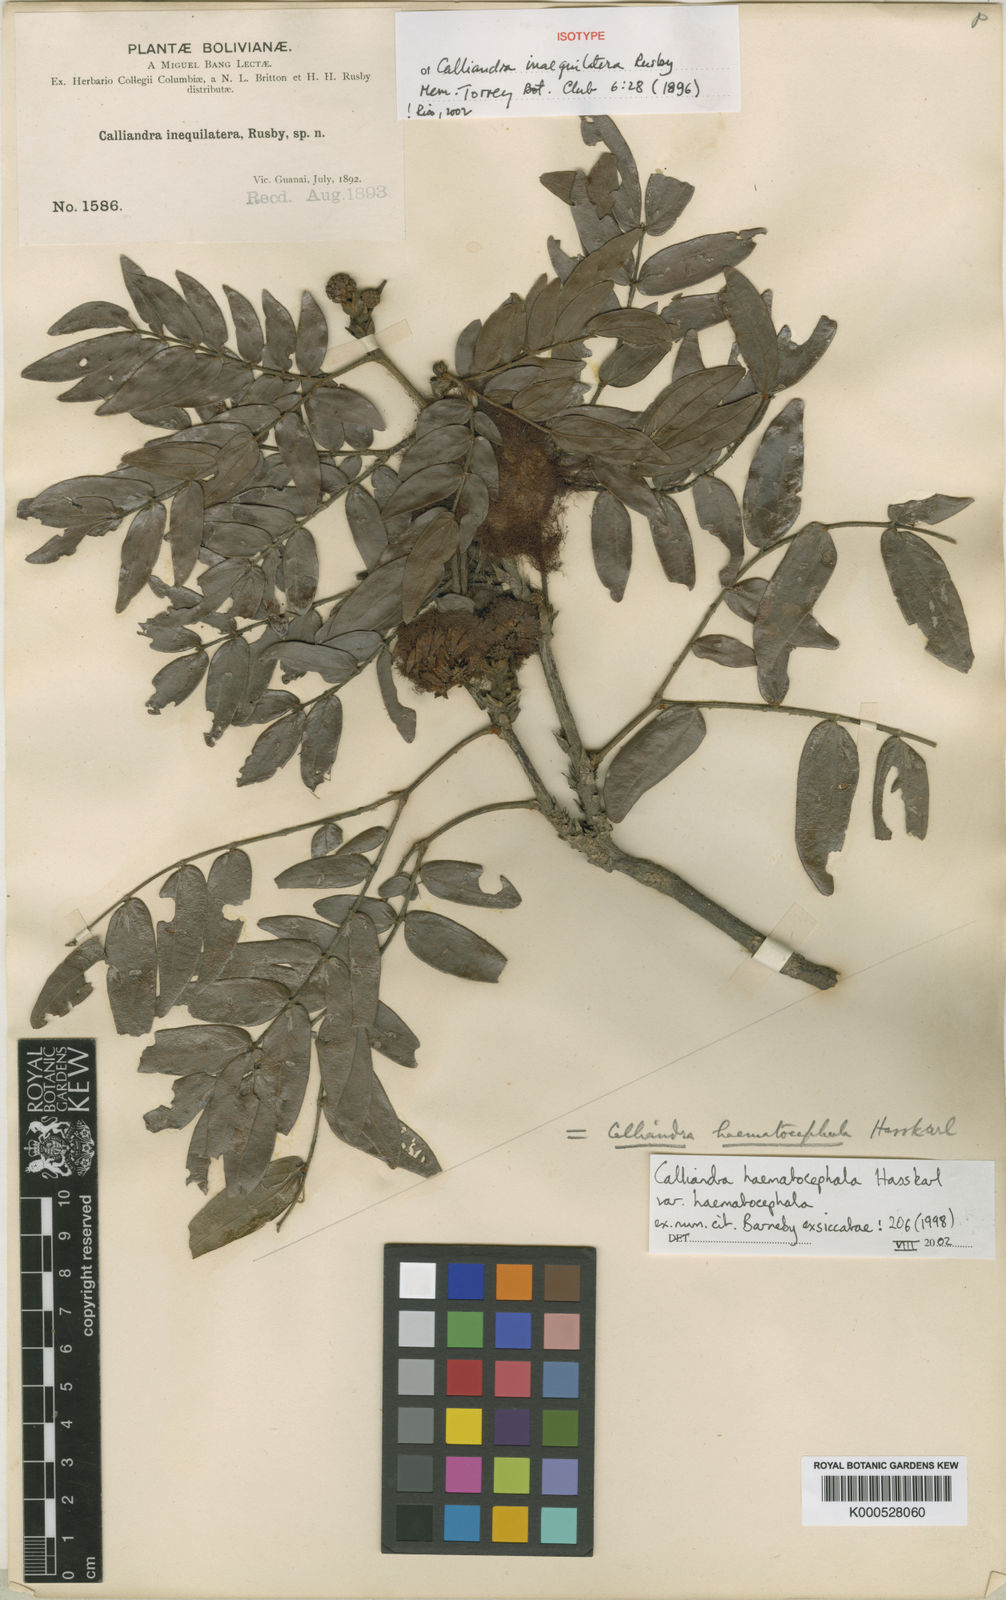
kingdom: Plantae
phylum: Tracheophyta
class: Magnoliopsida
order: Fabales
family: Fabaceae
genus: Calliandra
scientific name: Calliandra haematocephala
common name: Blood red tassel flower
